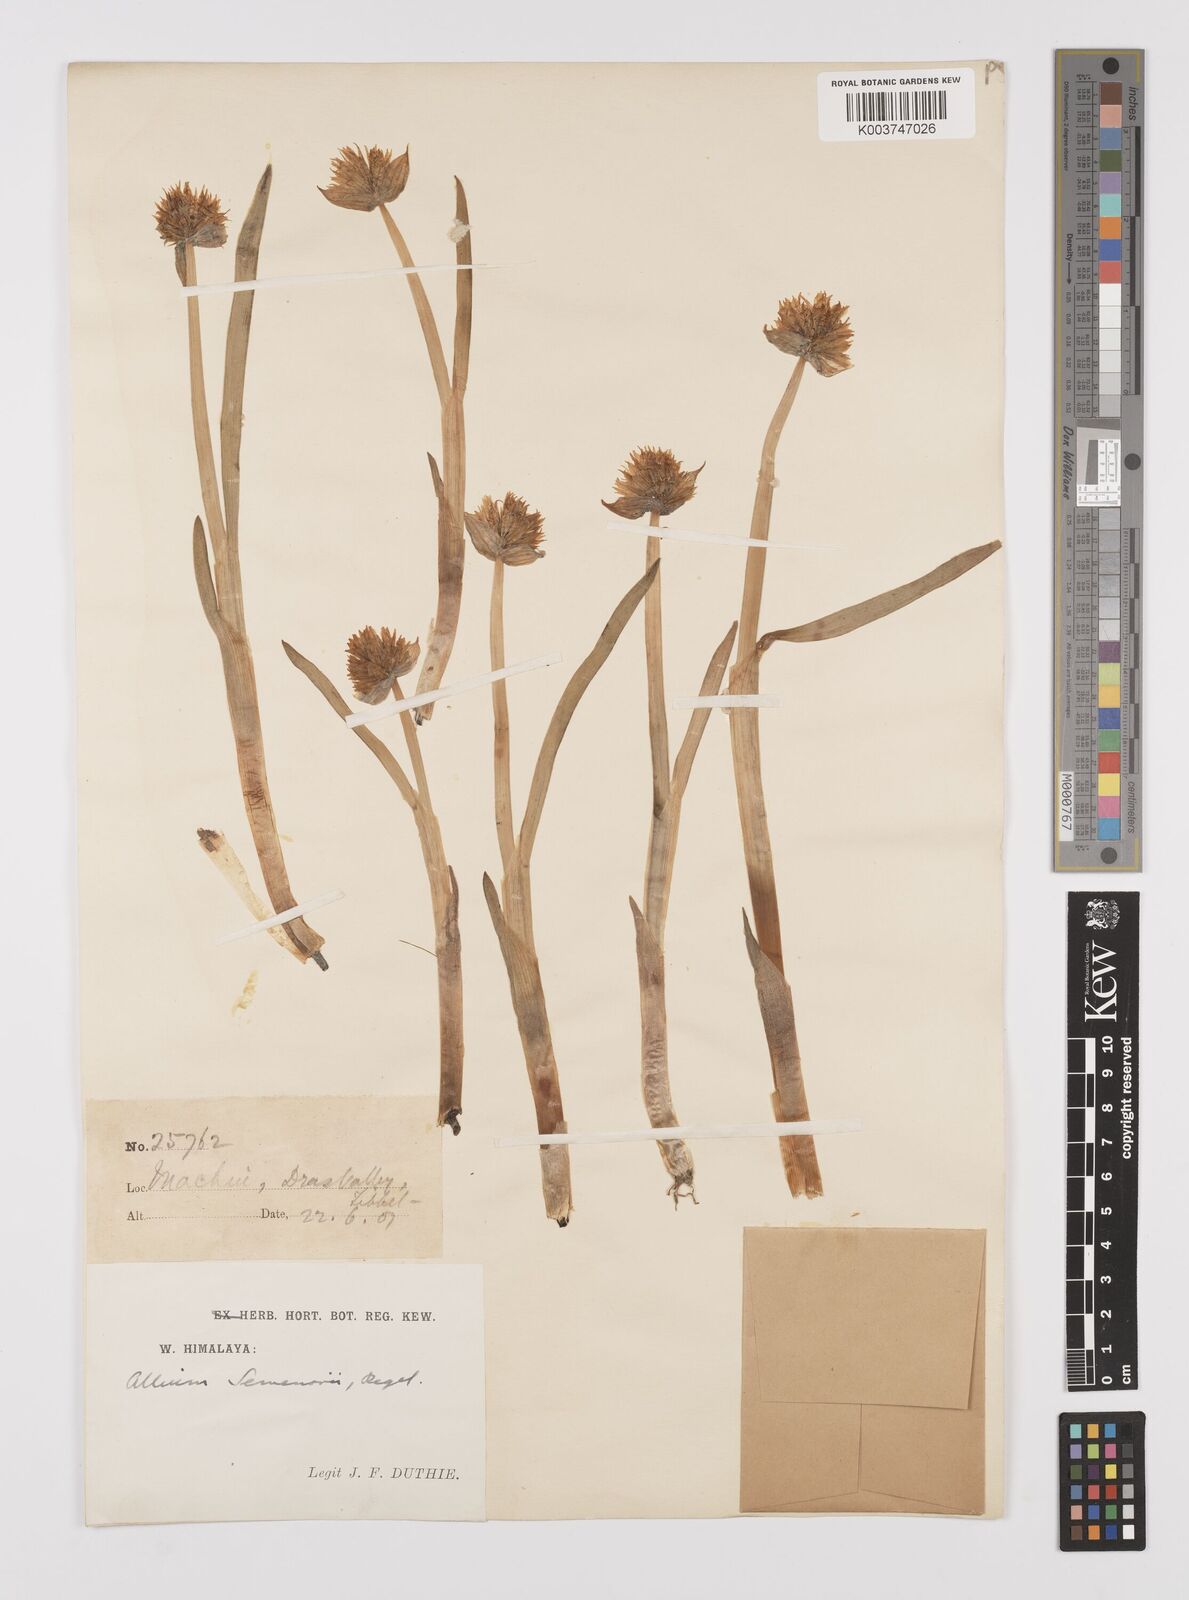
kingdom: Plantae
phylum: Tracheophyta
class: Liliopsida
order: Asparagales
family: Amaryllidaceae
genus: Allium
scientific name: Allium semenovii
